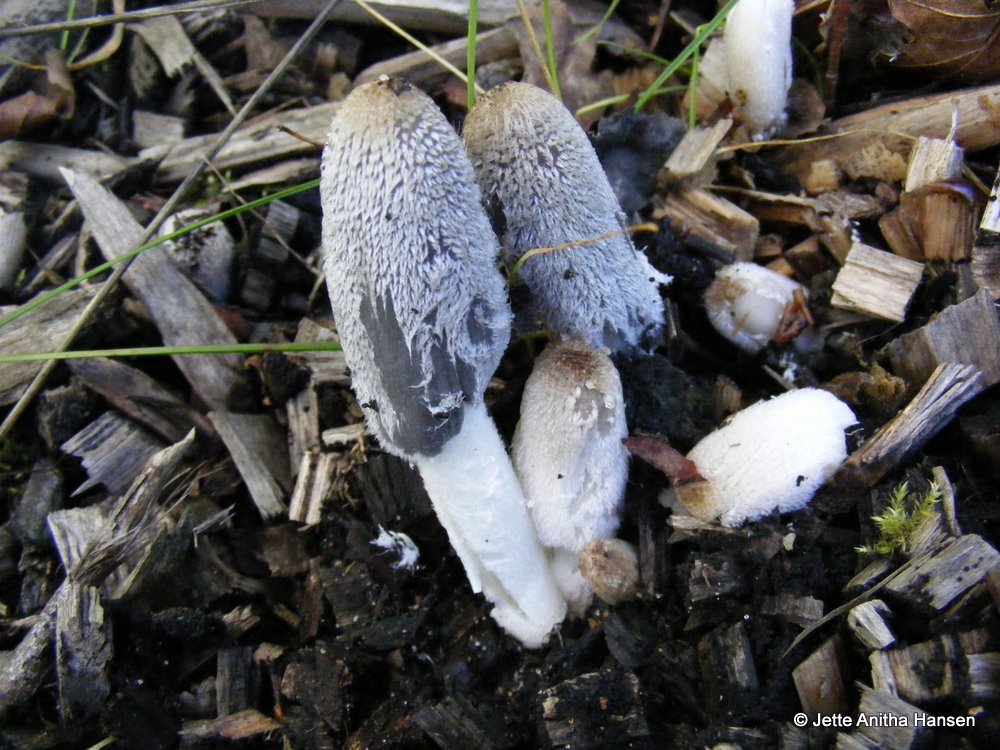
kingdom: Fungi
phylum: Basidiomycota
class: Agaricomycetes
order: Agaricales
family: Psathyrellaceae
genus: Coprinopsis
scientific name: Coprinopsis lagopus
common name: dunstokket blækhat
